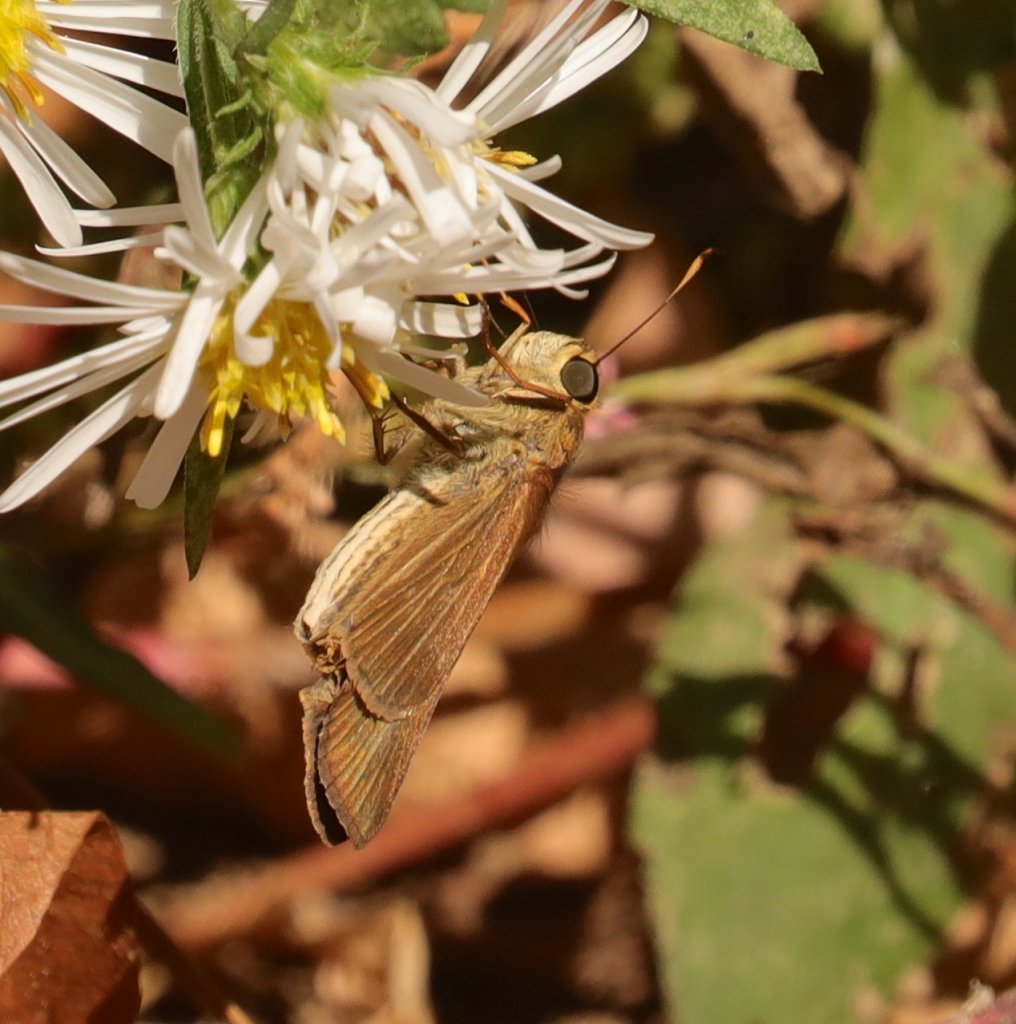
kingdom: Animalia
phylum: Arthropoda
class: Insecta
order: Lepidoptera
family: Hesperiidae
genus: Panoquina
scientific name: Panoquina ocola
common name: Ocola Skipper
